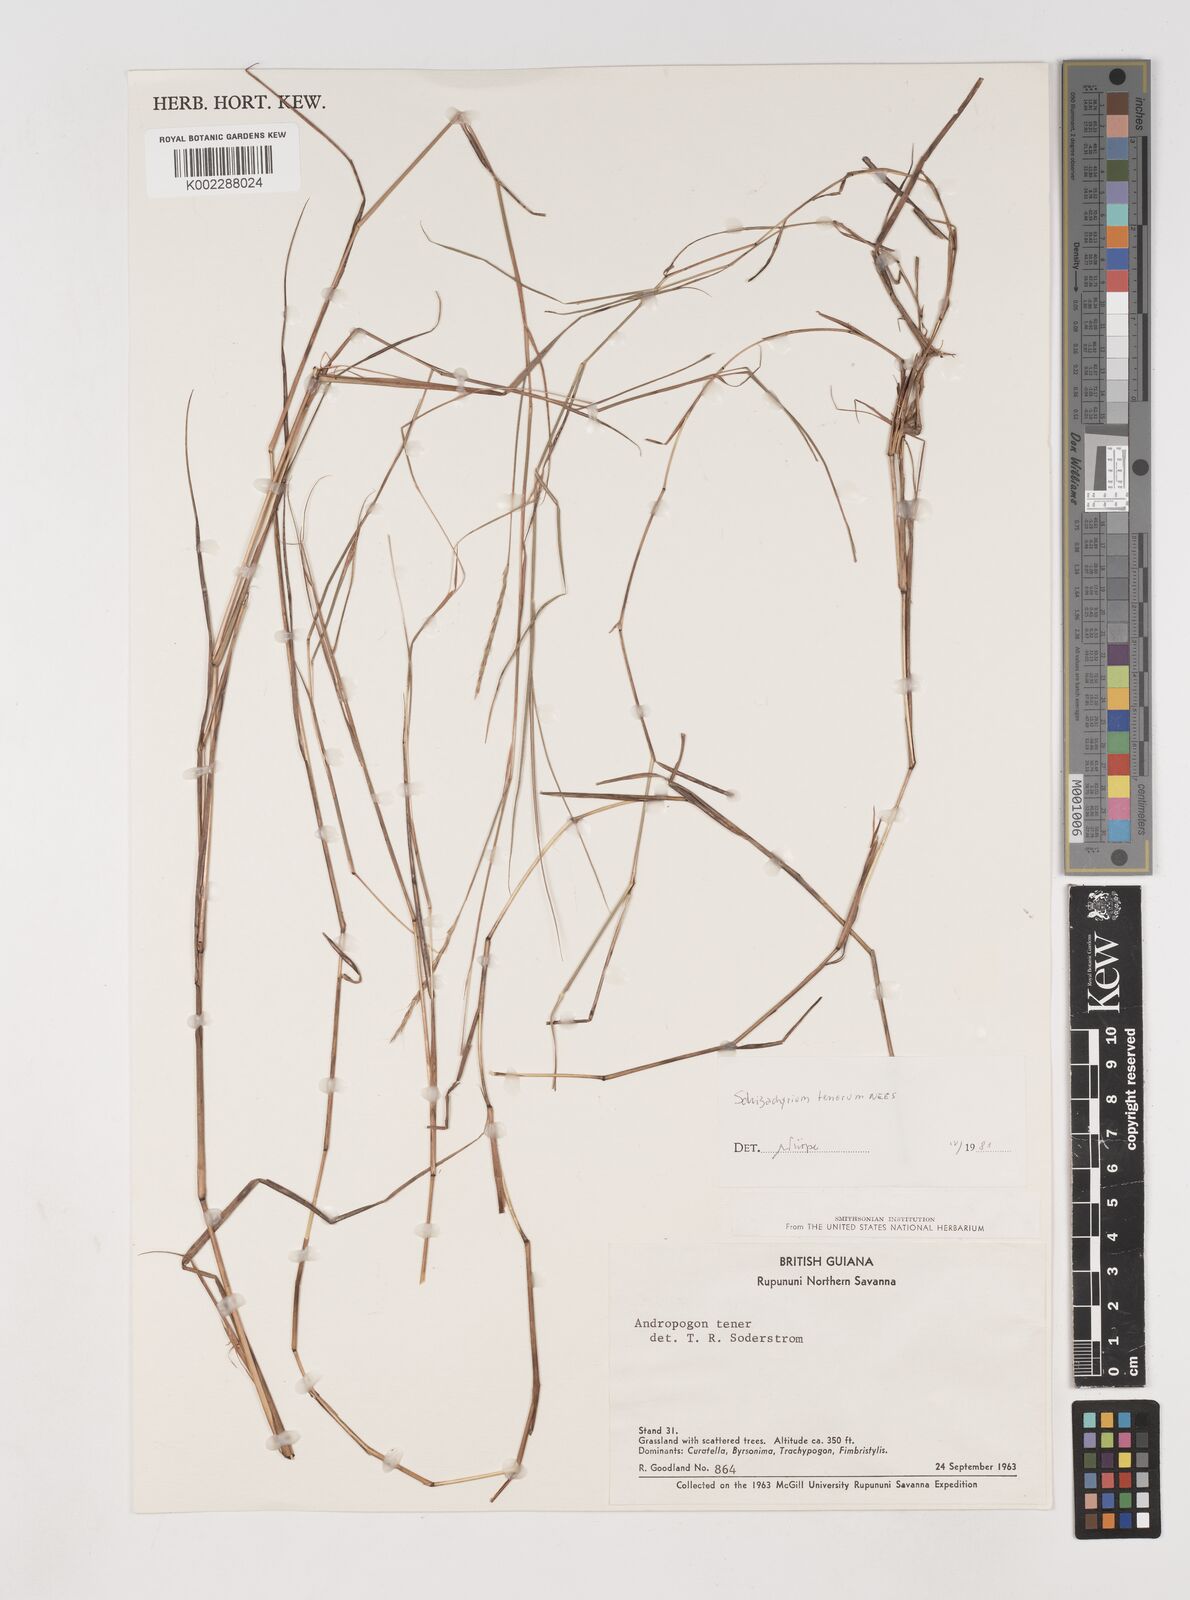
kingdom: Plantae
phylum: Tracheophyta
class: Liliopsida
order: Poales
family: Poaceae
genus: Andropogon
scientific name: Andropogon tener
